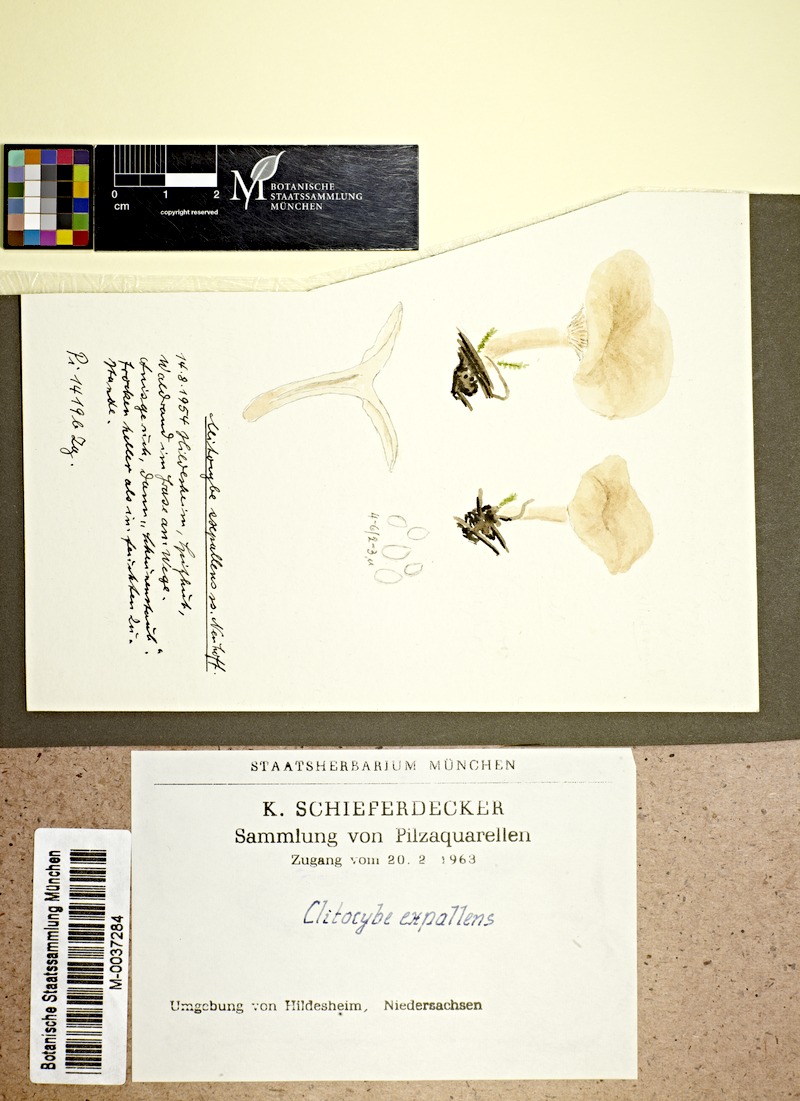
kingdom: Fungi
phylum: Basidiomycota
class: Agaricomycetes
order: Agaricales
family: Tricholomataceae
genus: Clitocybe
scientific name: Clitocybe subcordispora
